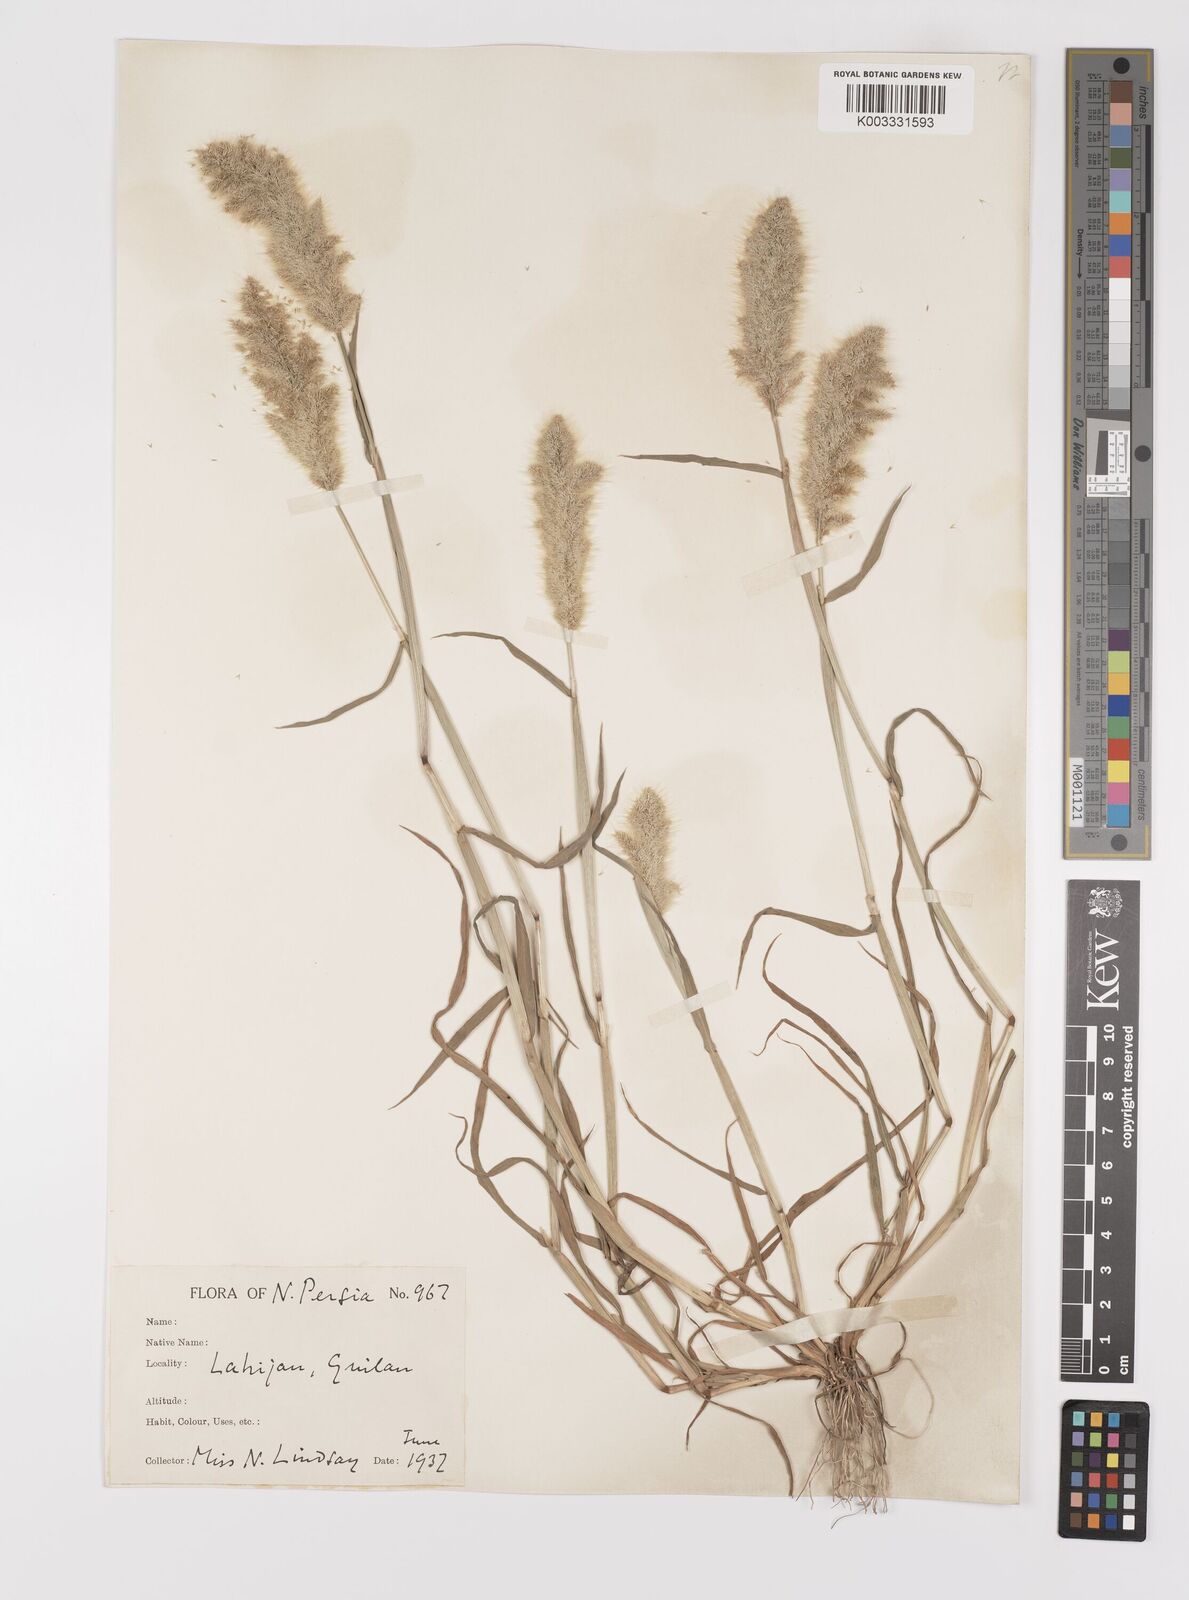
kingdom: Plantae
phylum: Tracheophyta
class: Liliopsida
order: Poales
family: Poaceae
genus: Polypogon
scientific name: Polypogon monspeliensis
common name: Annual rabbitsfoot grass
